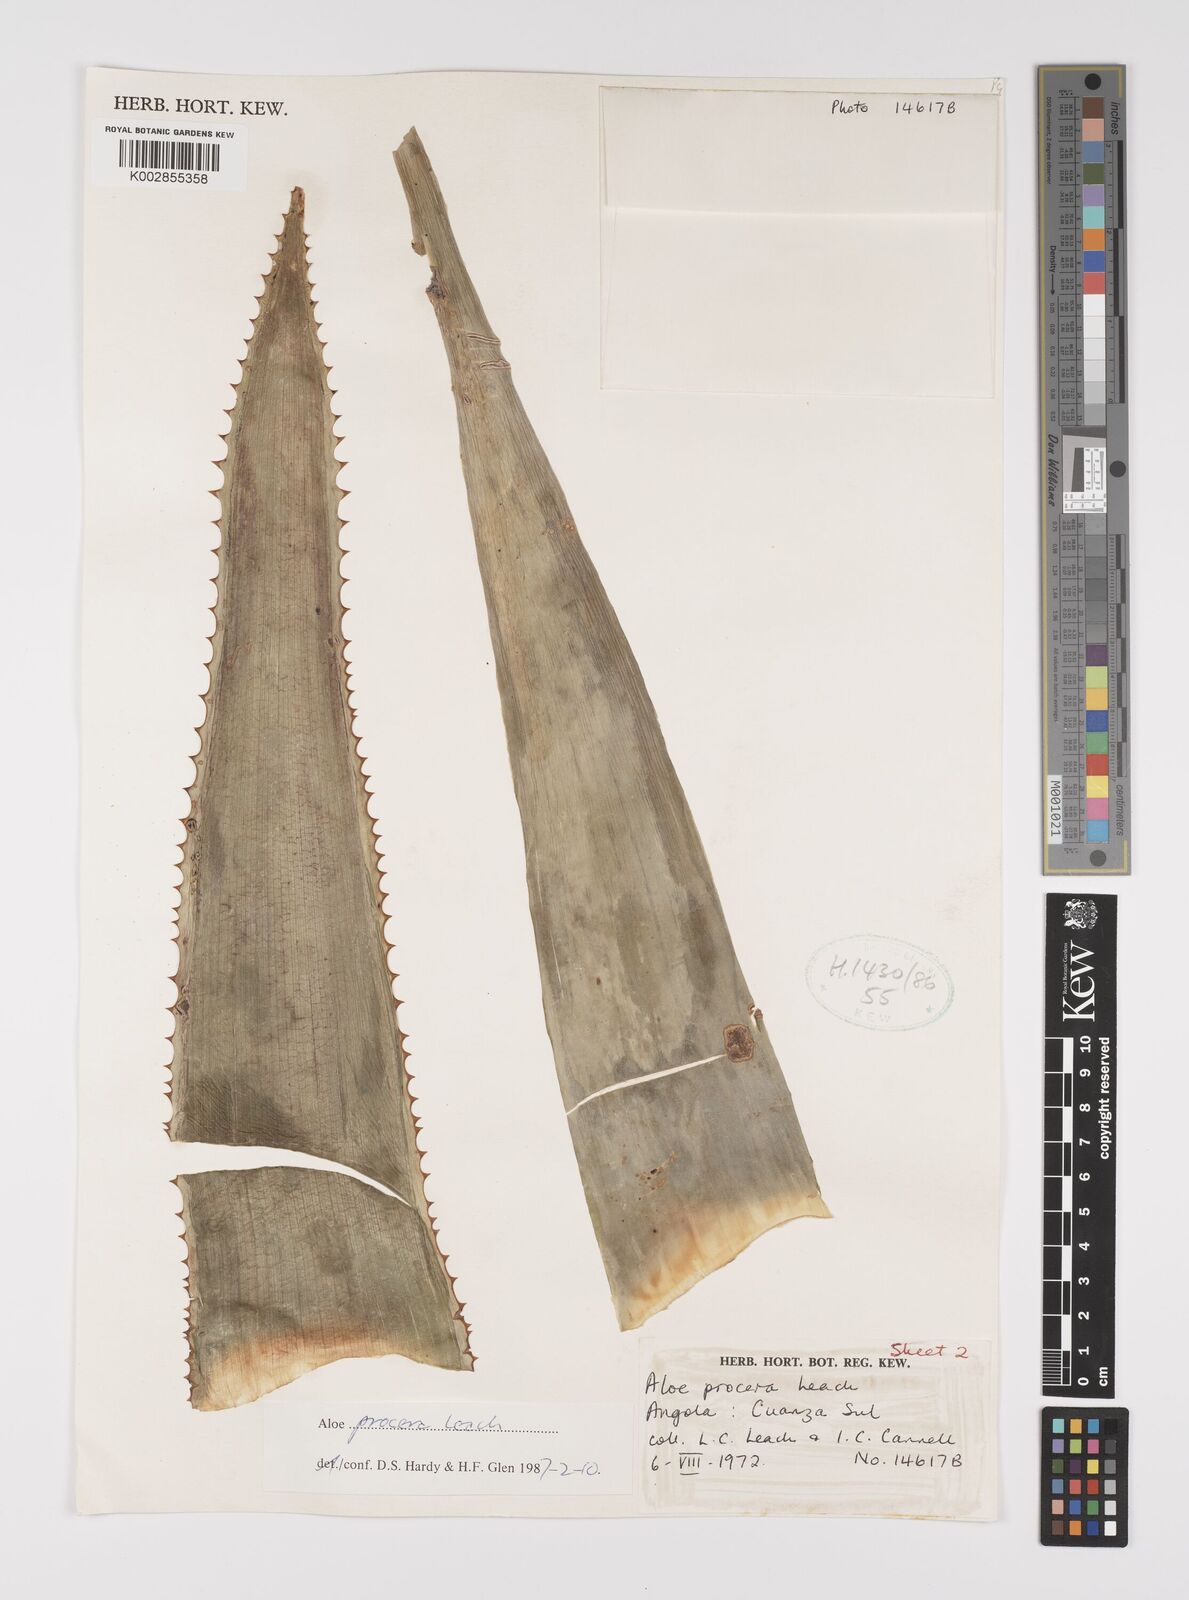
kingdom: Plantae
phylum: Tracheophyta
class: Liliopsida
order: Asparagales
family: Asphodelaceae
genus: Aloe
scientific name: Aloe procera
